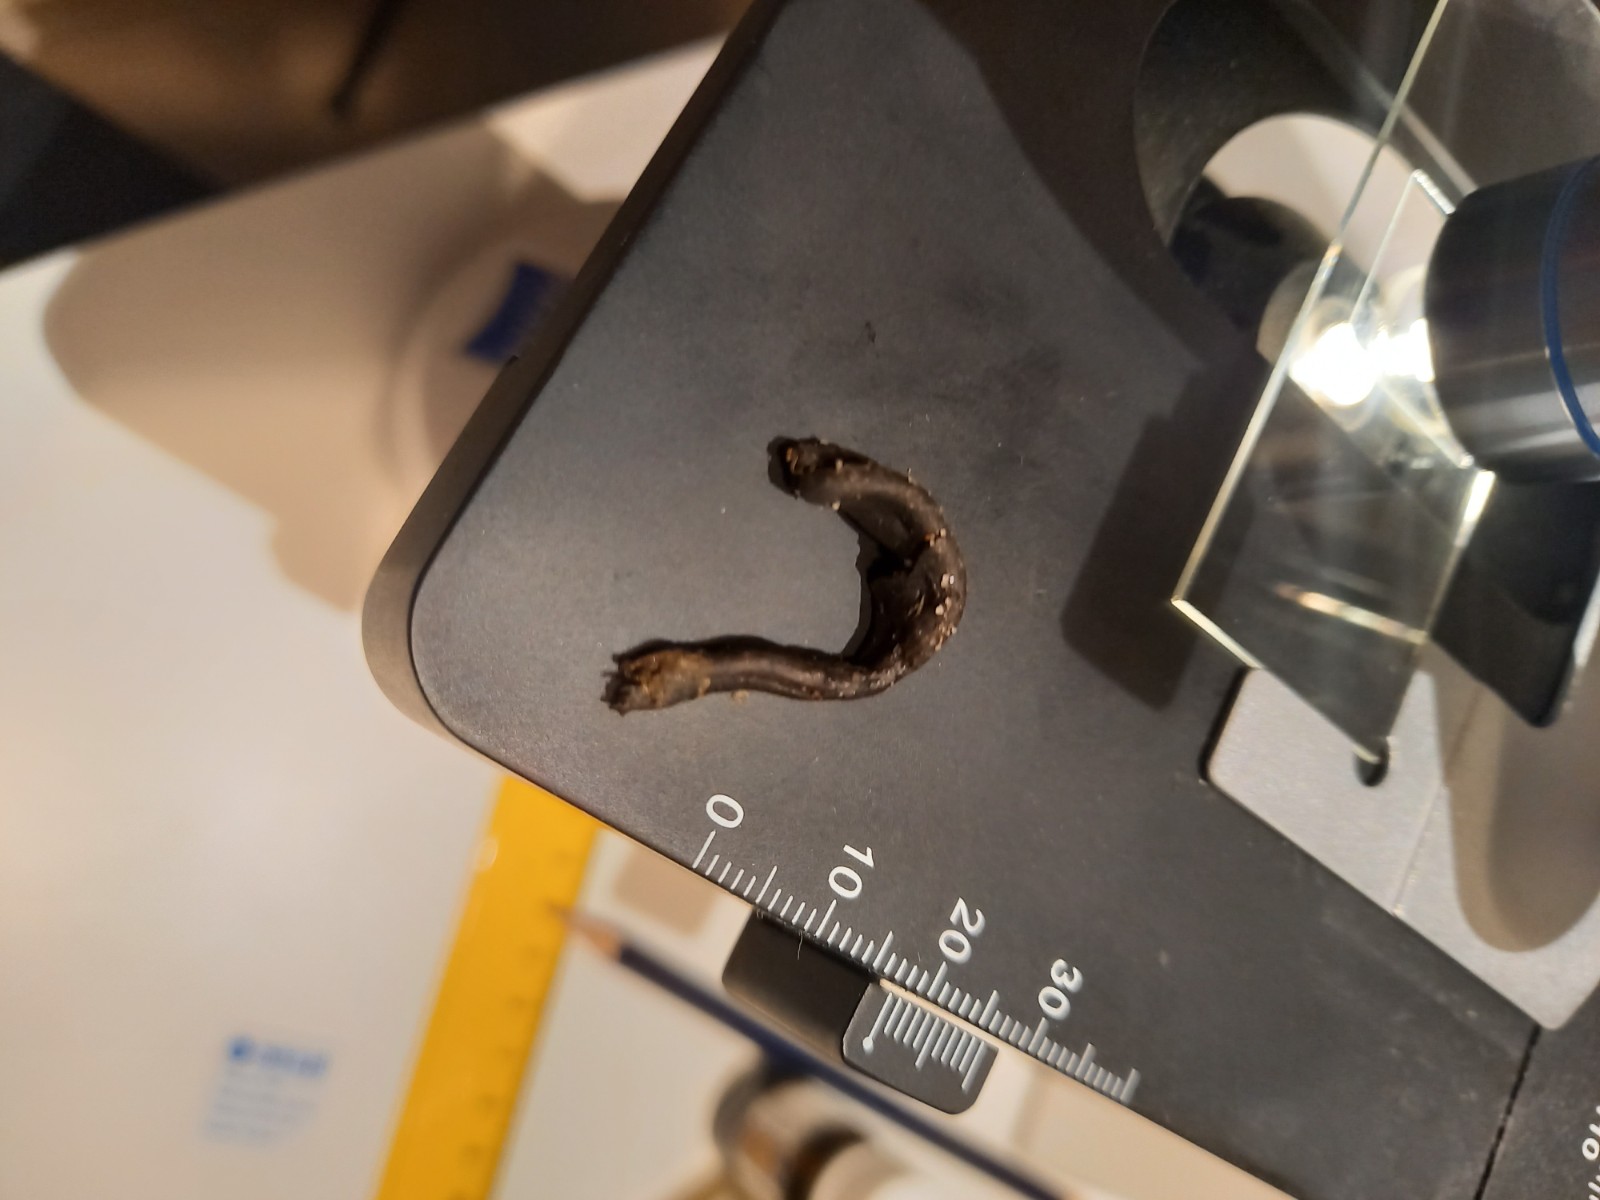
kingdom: Fungi
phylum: Ascomycota
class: Geoglossomycetes
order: Geoglossales
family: Geoglossaceae
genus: Geoglossum
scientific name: Geoglossum umbratile
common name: slank jordtunge
